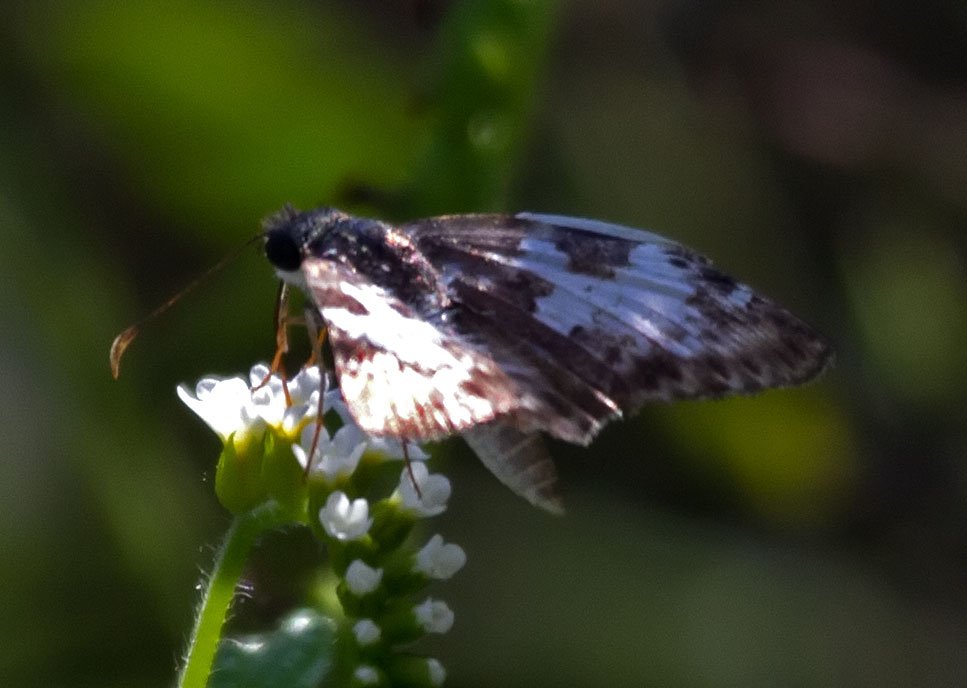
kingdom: Animalia
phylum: Arthropoda
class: Insecta
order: Lepidoptera
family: Hesperiidae
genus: Chiomara
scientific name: Chiomara asychis
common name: White-patched Skipper
